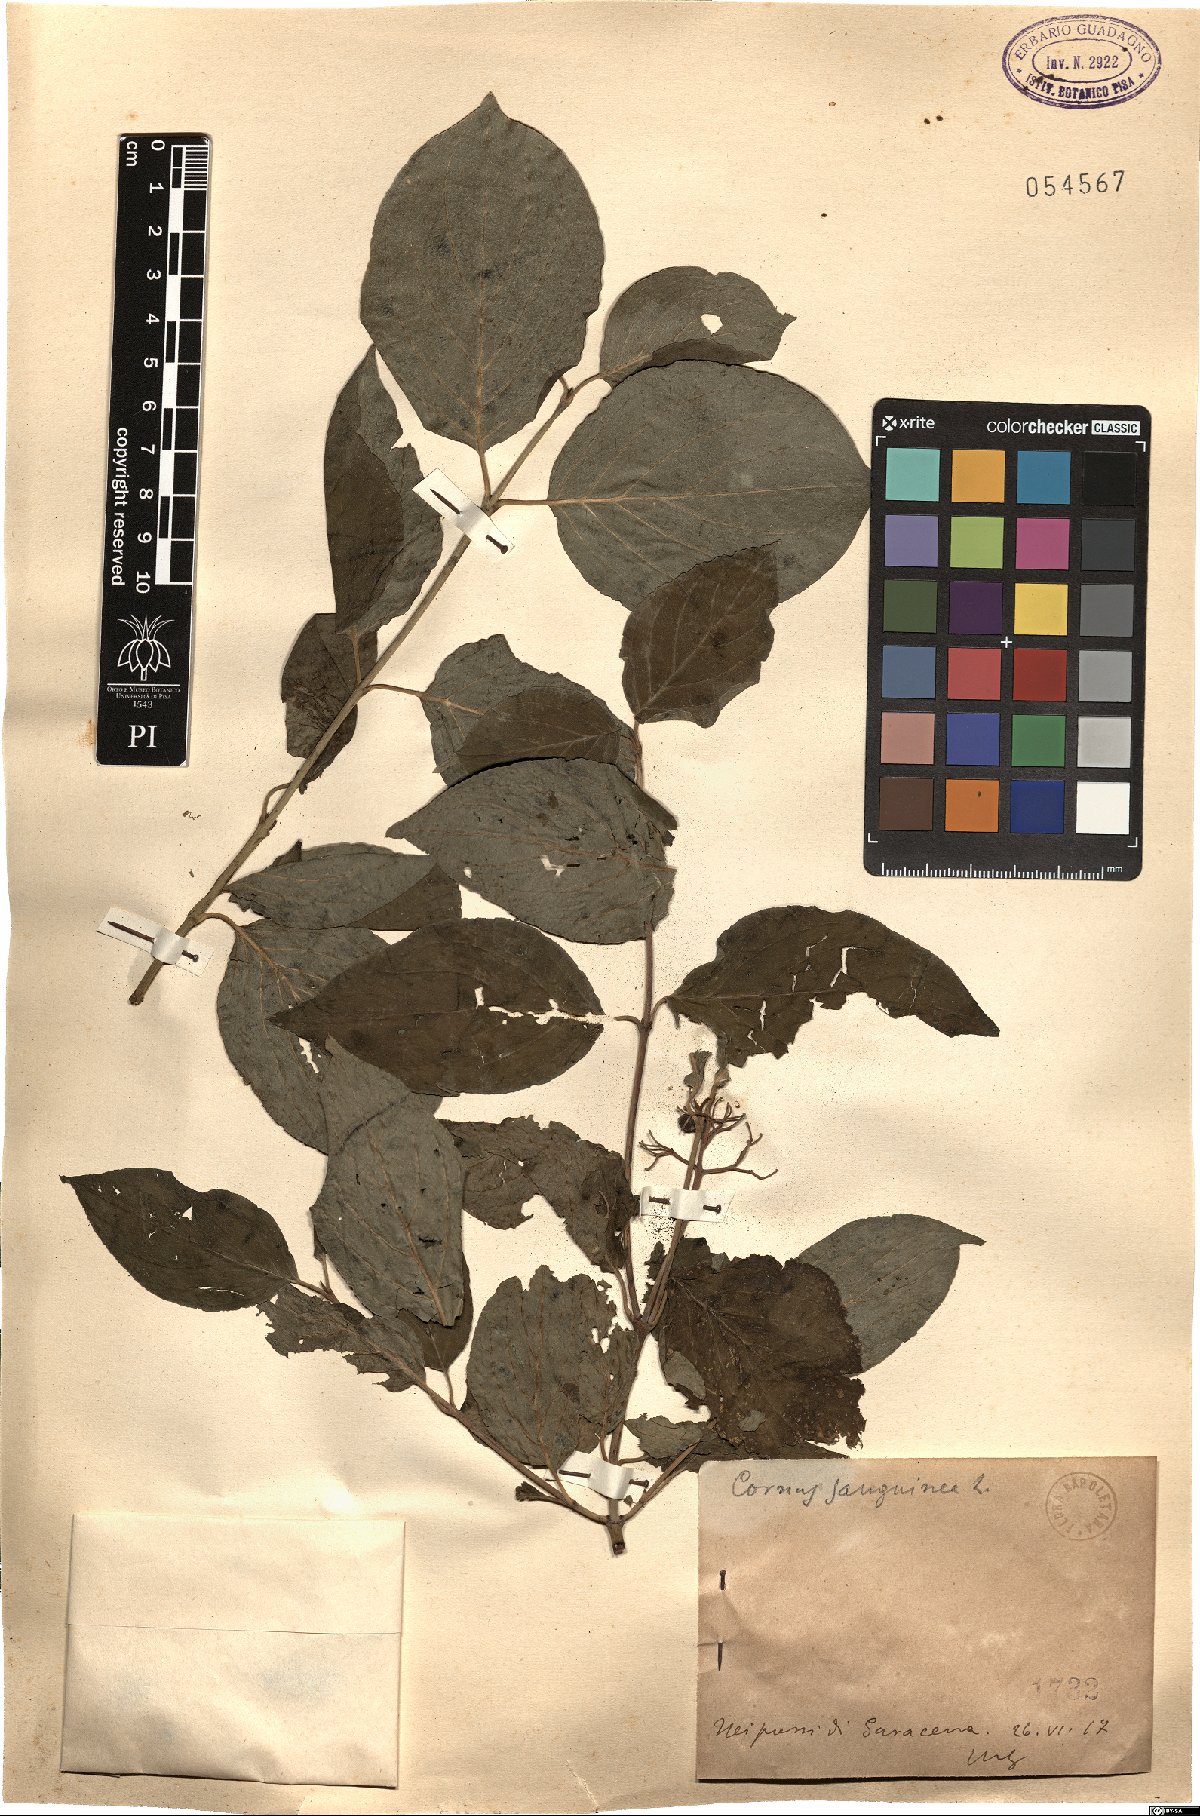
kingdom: Plantae
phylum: Tracheophyta
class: Magnoliopsida
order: Cornales
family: Cornaceae
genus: Cornus
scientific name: Cornus sanguinea
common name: Dogwood
